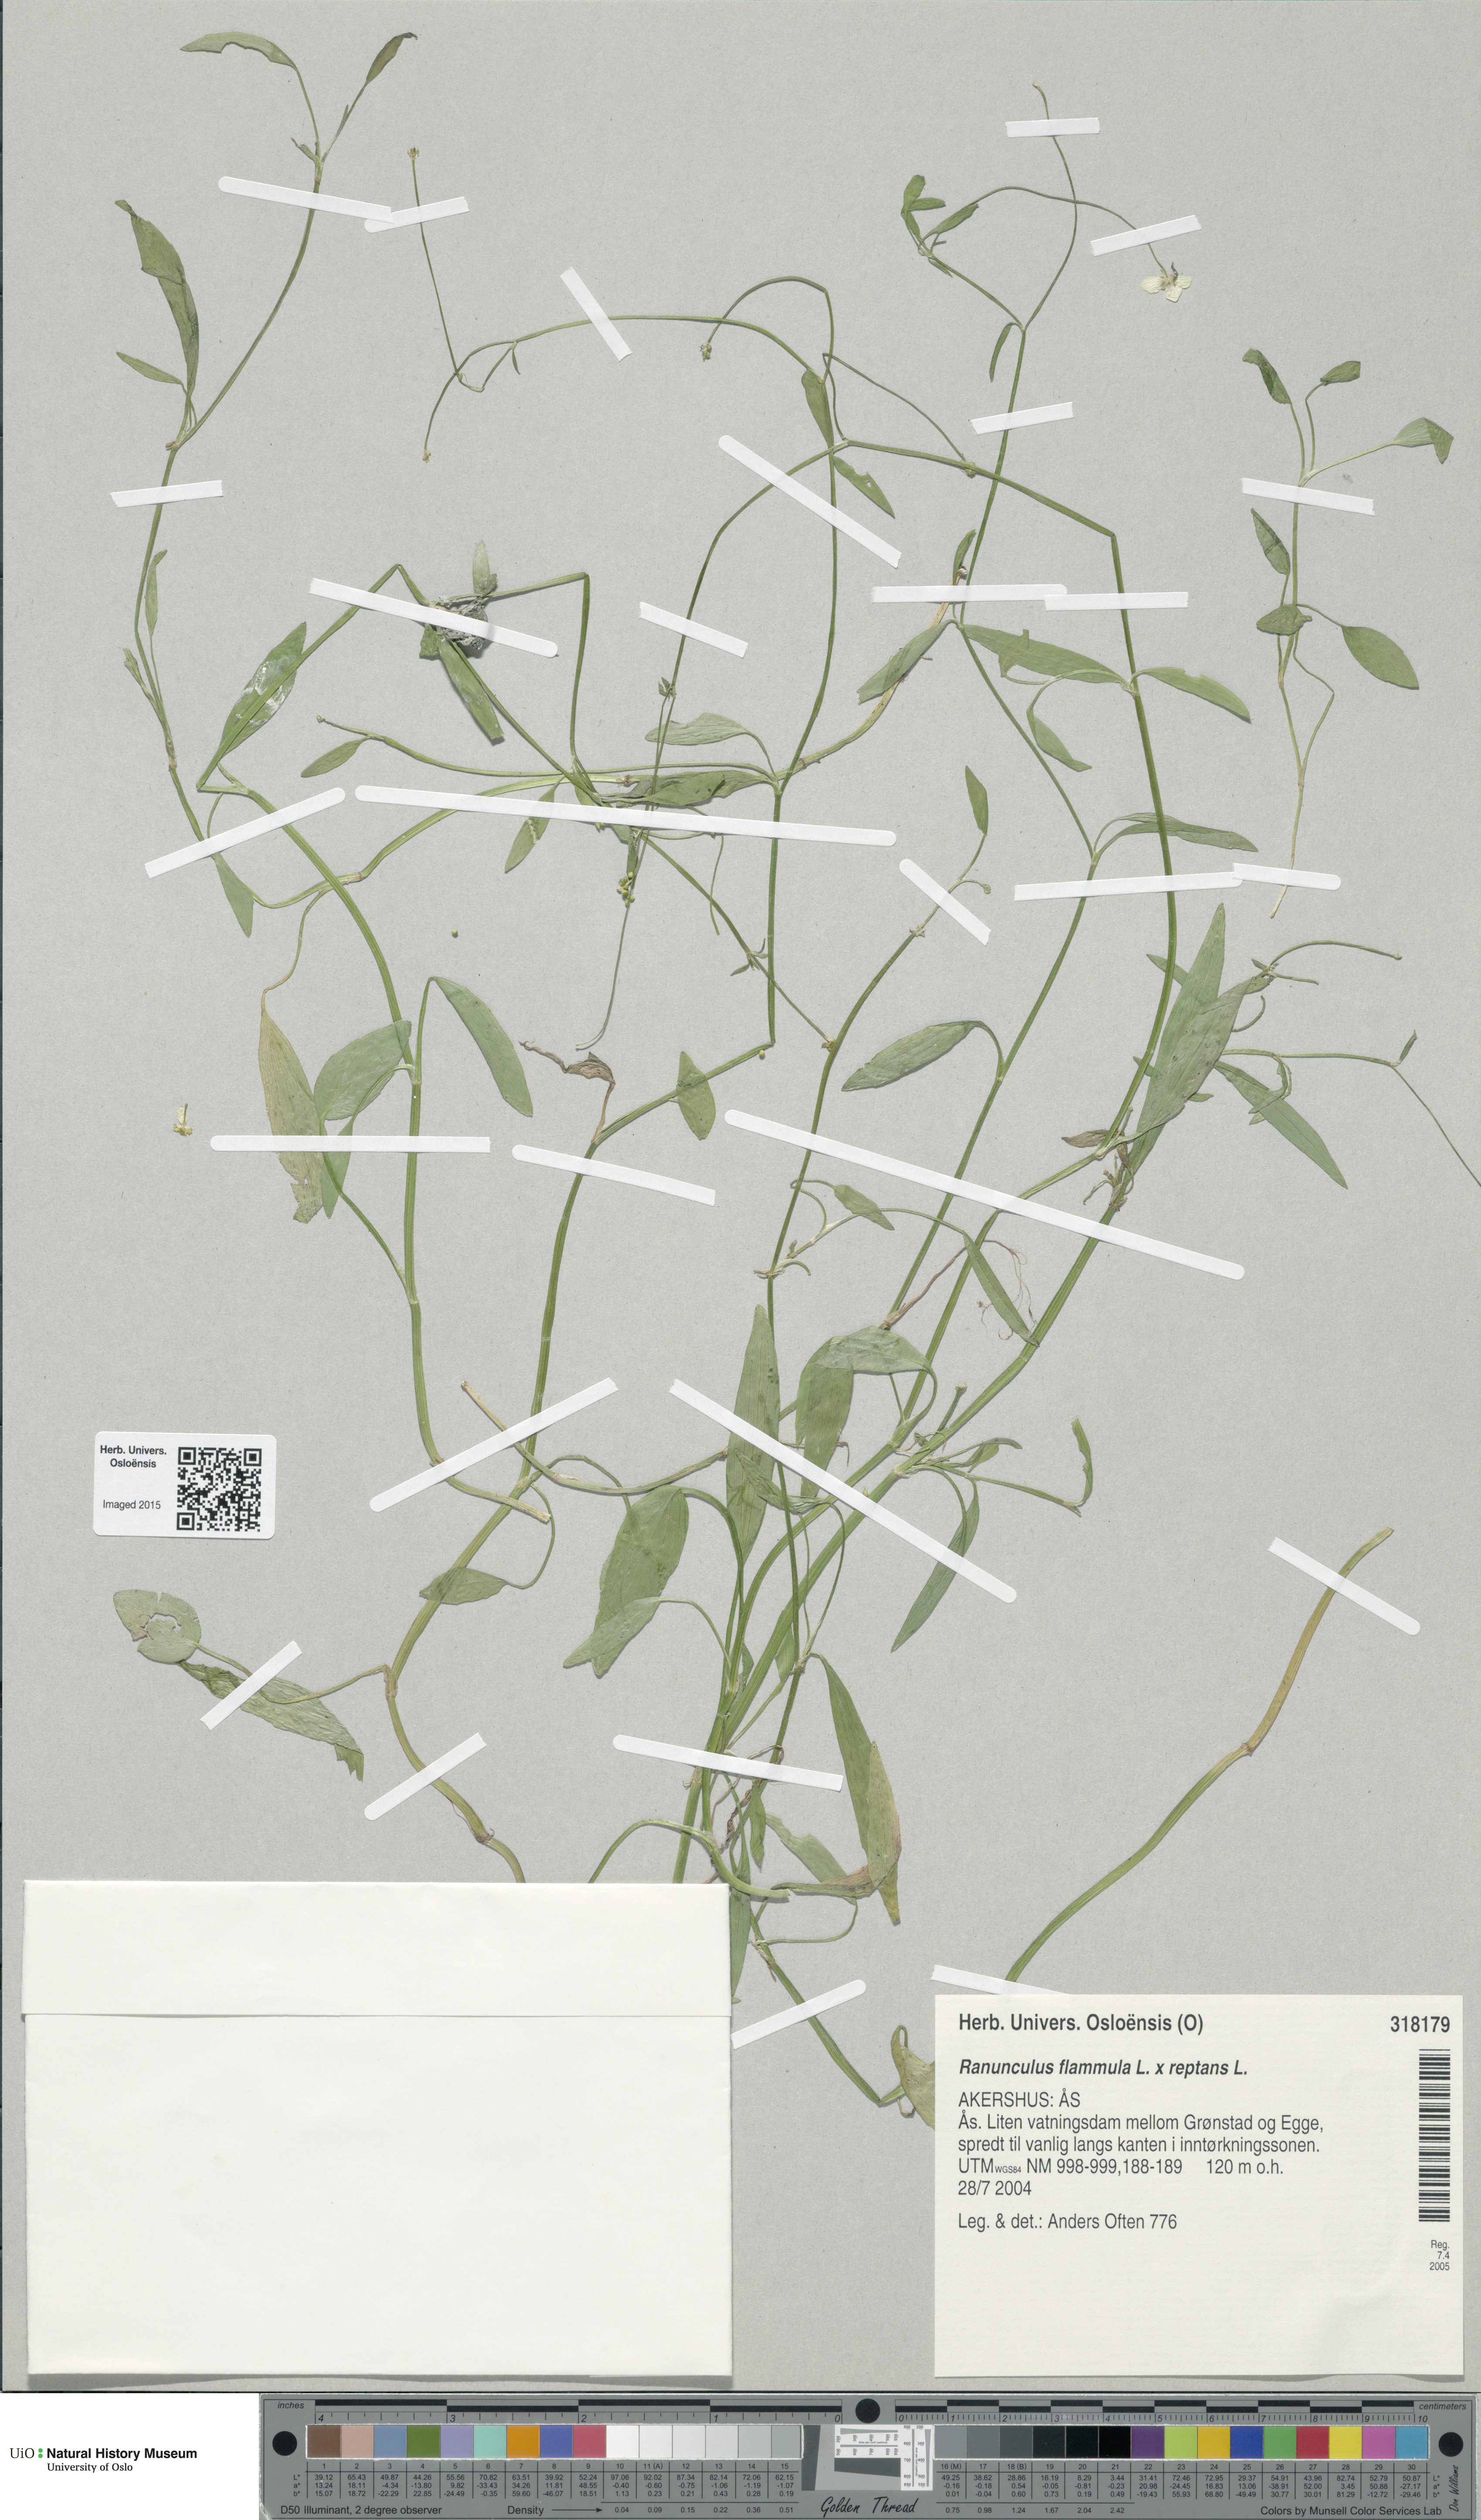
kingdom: Plantae
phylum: Tracheophyta
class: Magnoliopsida
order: Ranunculales
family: Ranunculaceae
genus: Ranunculus
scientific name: Ranunculus
